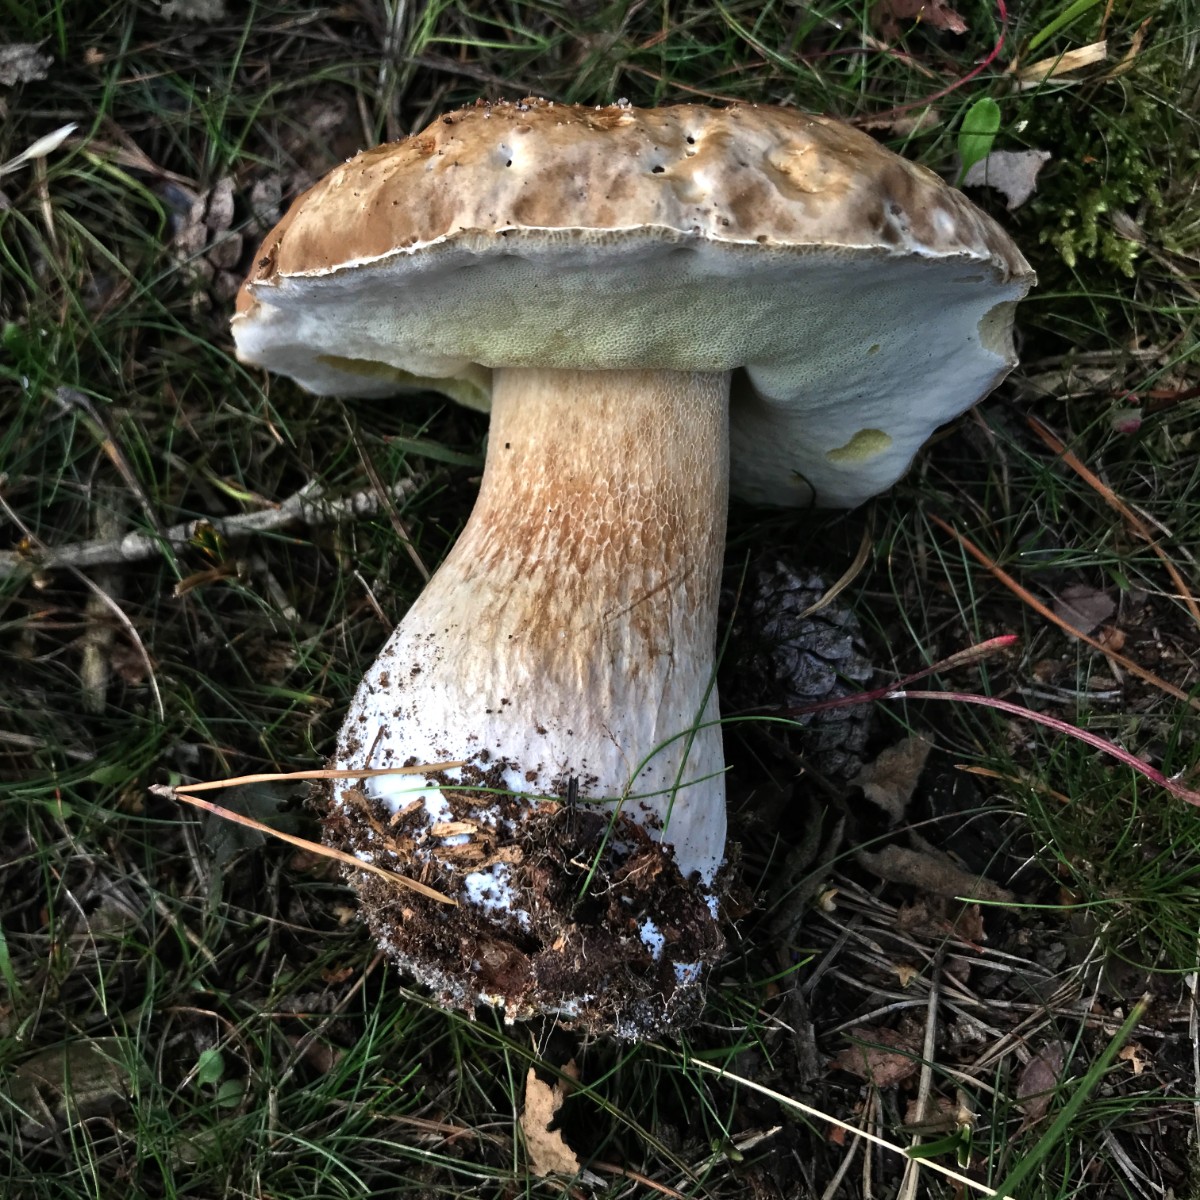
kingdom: Fungi
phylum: Basidiomycota
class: Agaricomycetes
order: Boletales
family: Boletaceae
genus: Boletus
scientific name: Boletus edulis
